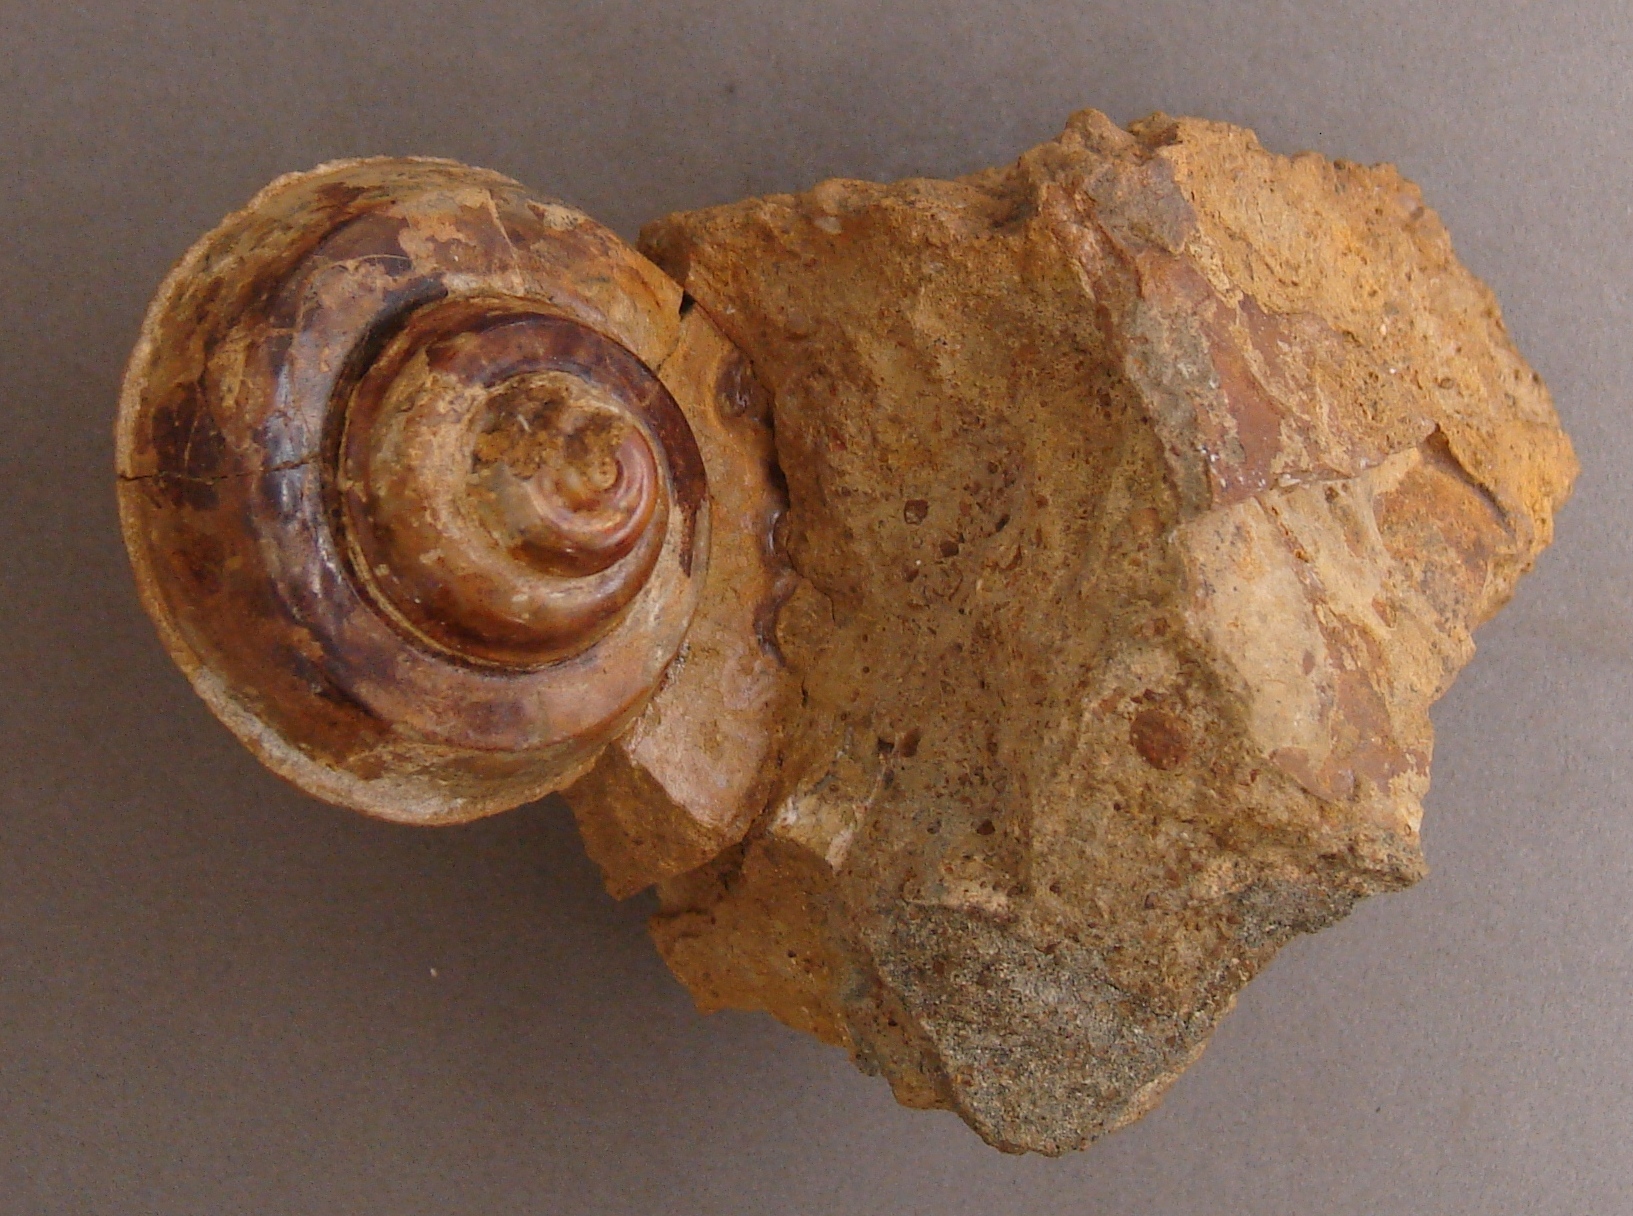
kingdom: Animalia
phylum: Mollusca
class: Gastropoda
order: Pleurotomariida
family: Trochotomidae
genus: Trochotoma
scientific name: Trochotoma affinis
